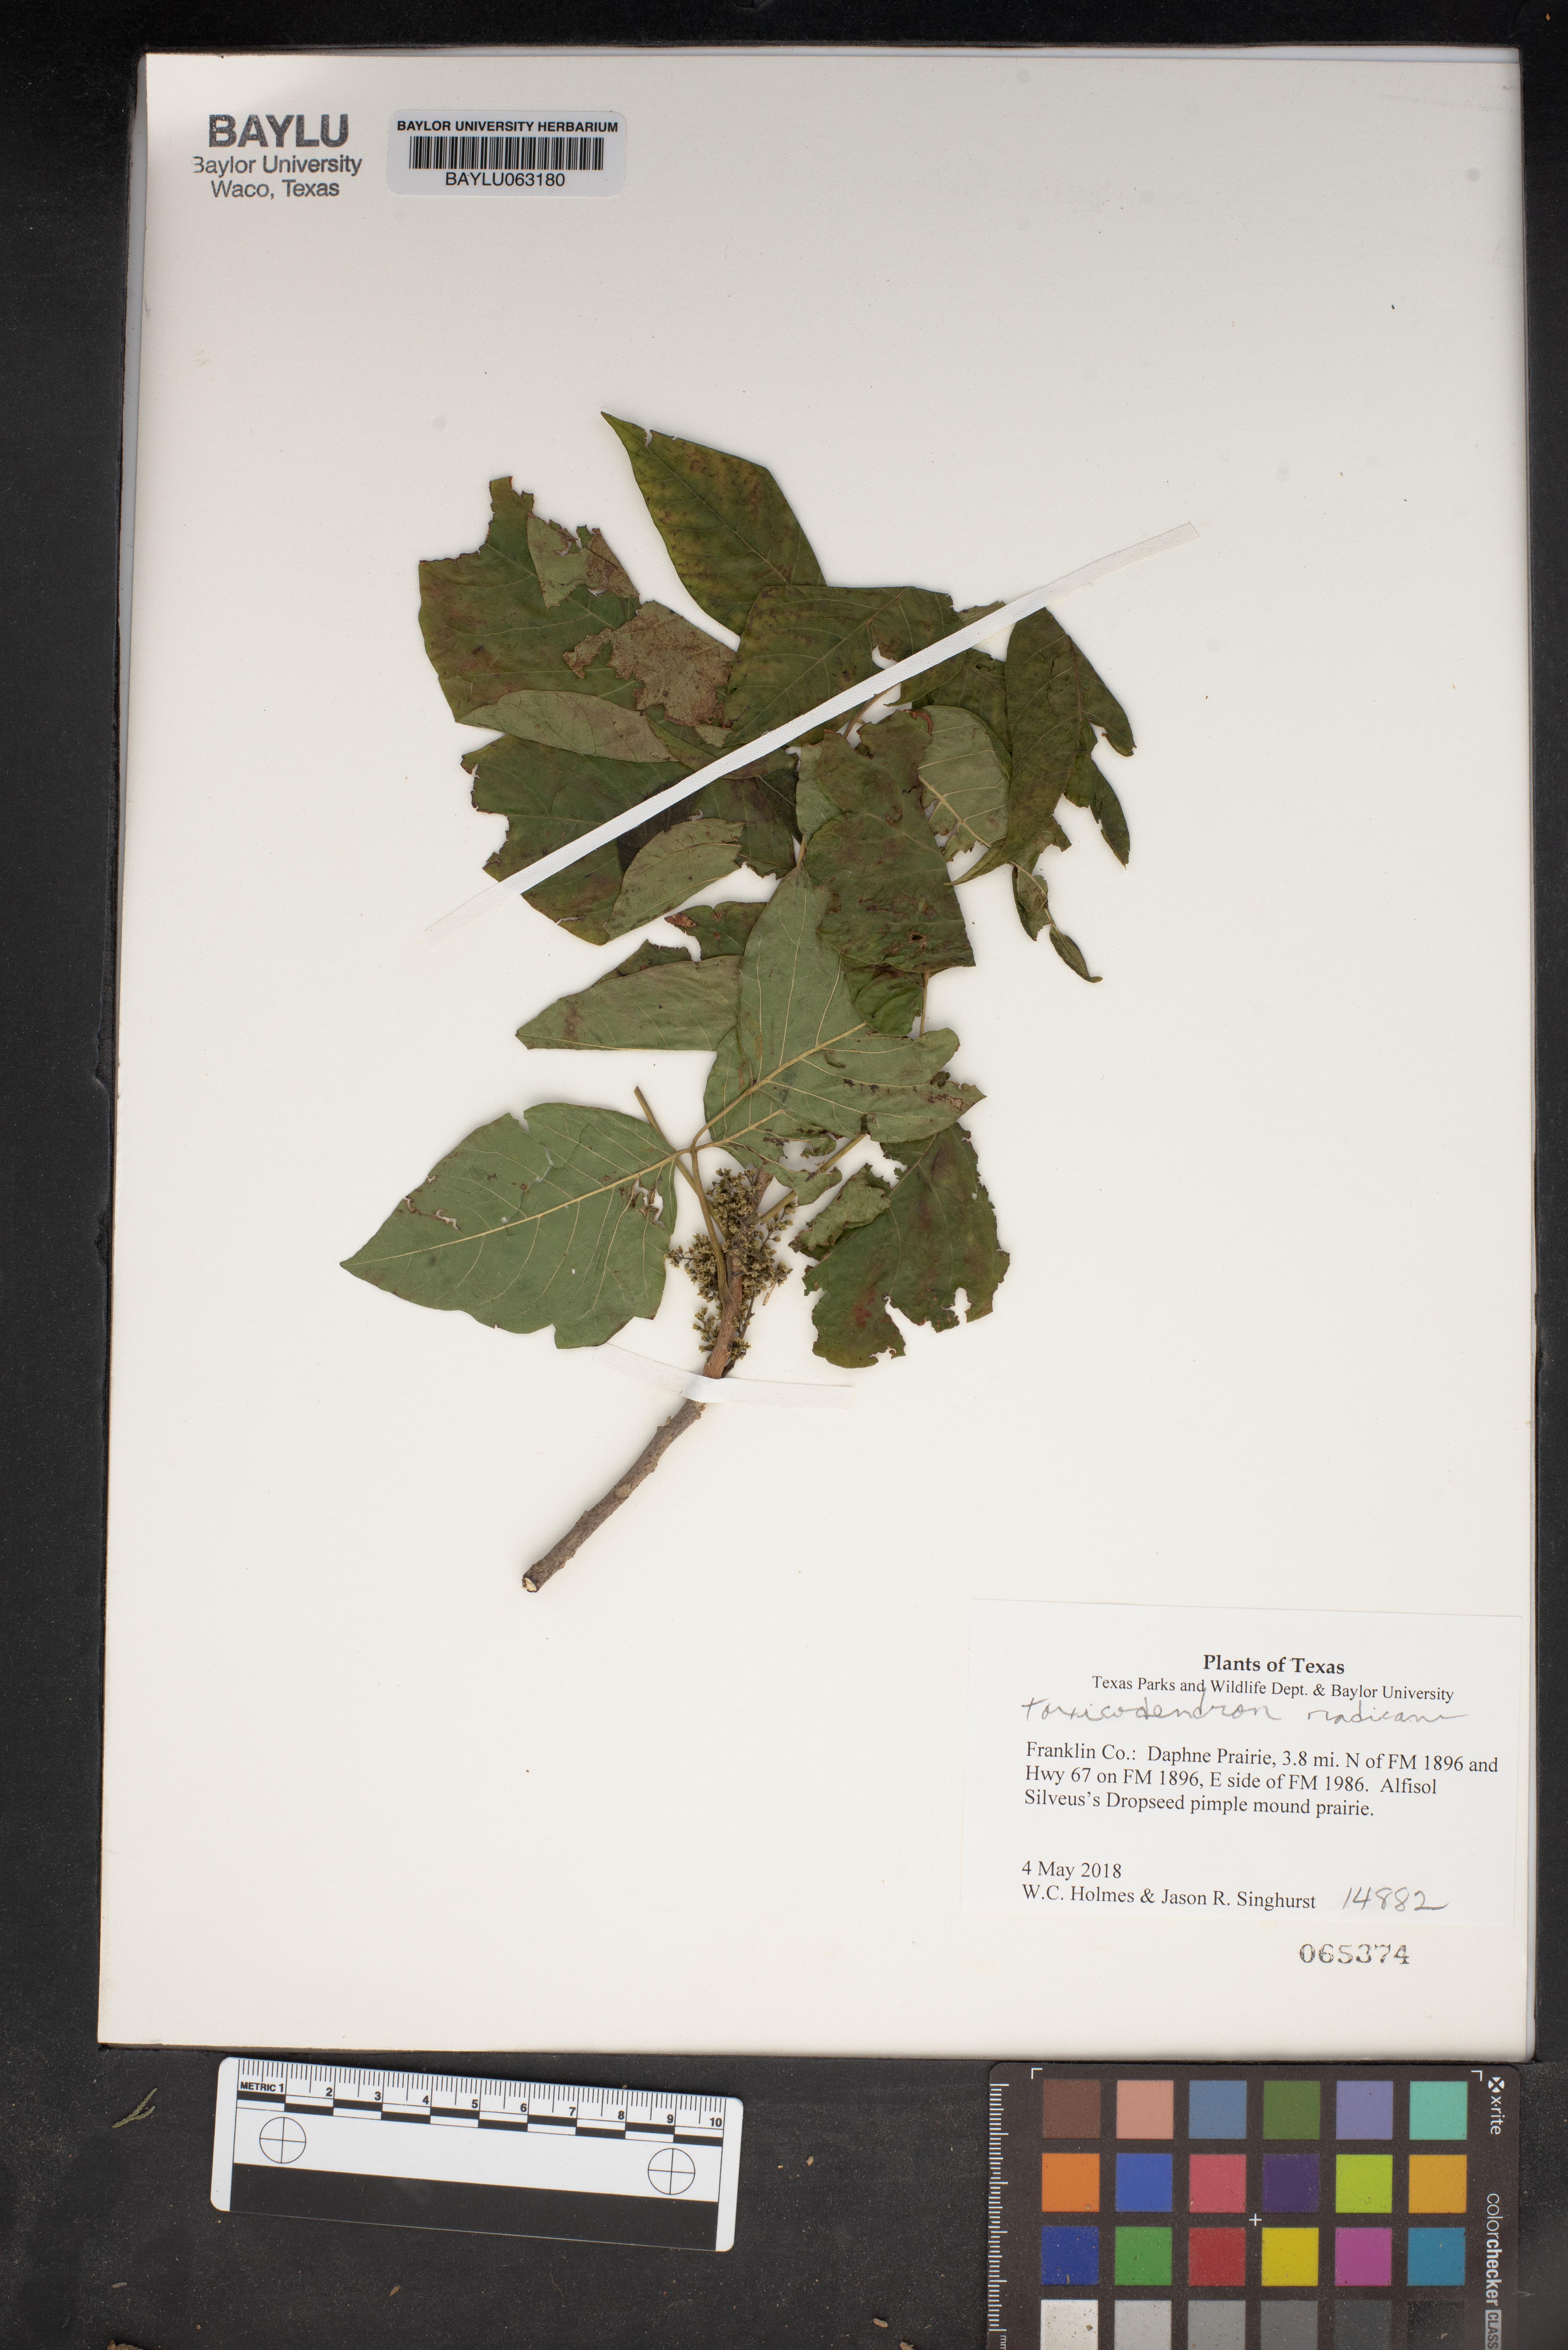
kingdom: Plantae
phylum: Tracheophyta
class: Magnoliopsida
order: Sapindales
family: Anacardiaceae
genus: Toxicodendron
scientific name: Toxicodendron radicans
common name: Poison ivy
